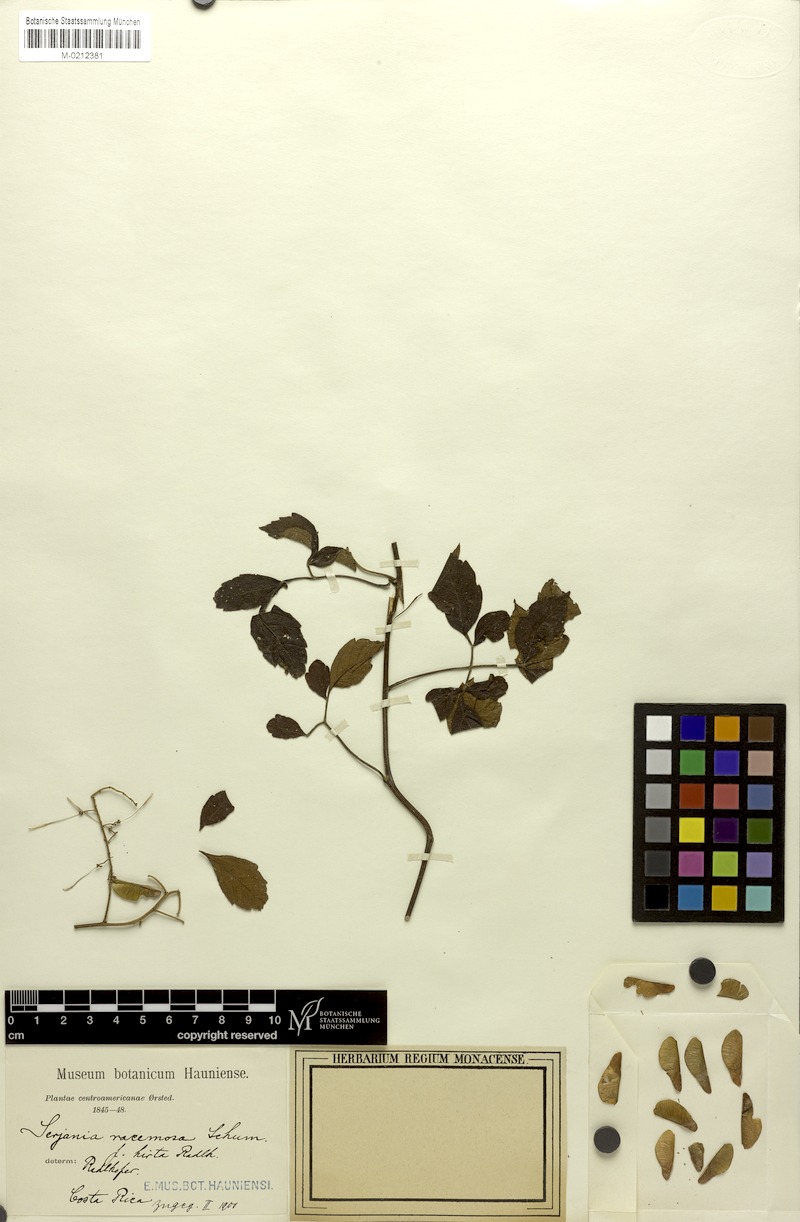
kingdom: Plantae
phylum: Tracheophyta
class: Magnoliopsida
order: Sapindales
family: Sapindaceae
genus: Serjania
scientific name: Serjania racemosa
